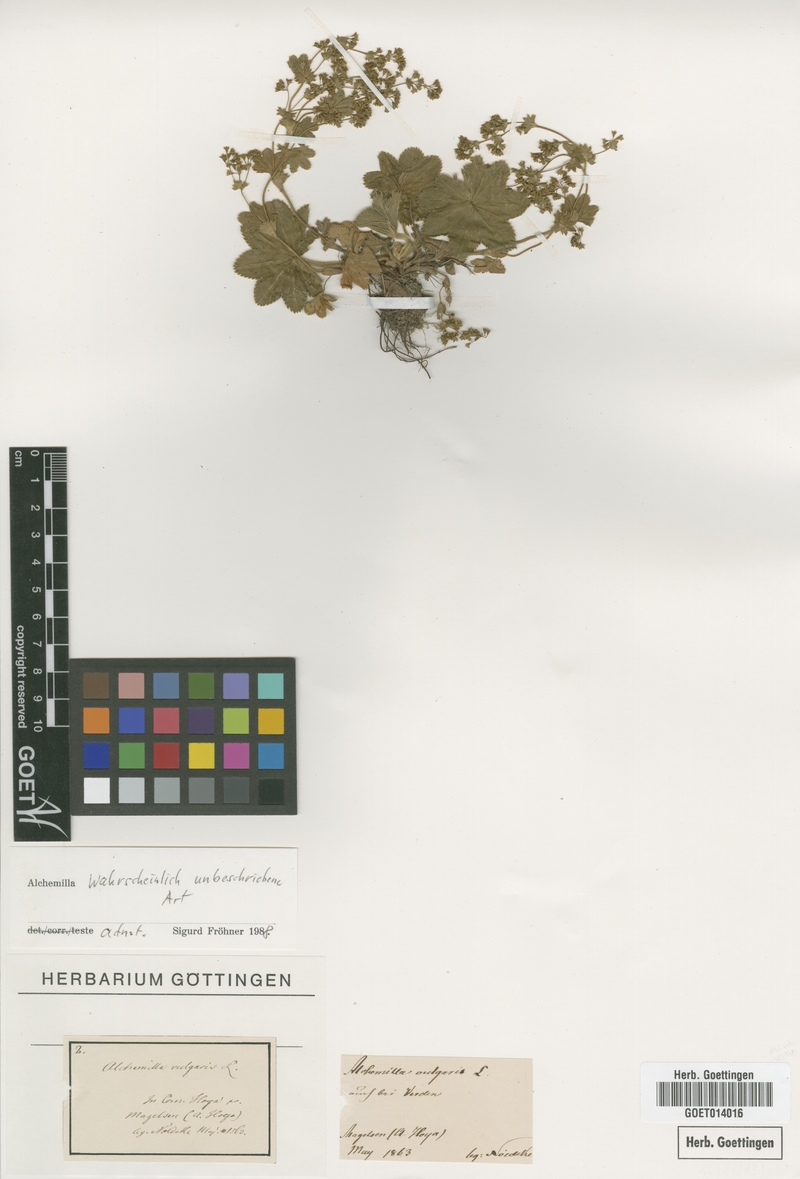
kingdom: Plantae
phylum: Tracheophyta
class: Magnoliopsida
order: Rosales
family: Rosaceae
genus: Alchemilla
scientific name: Alchemilla
